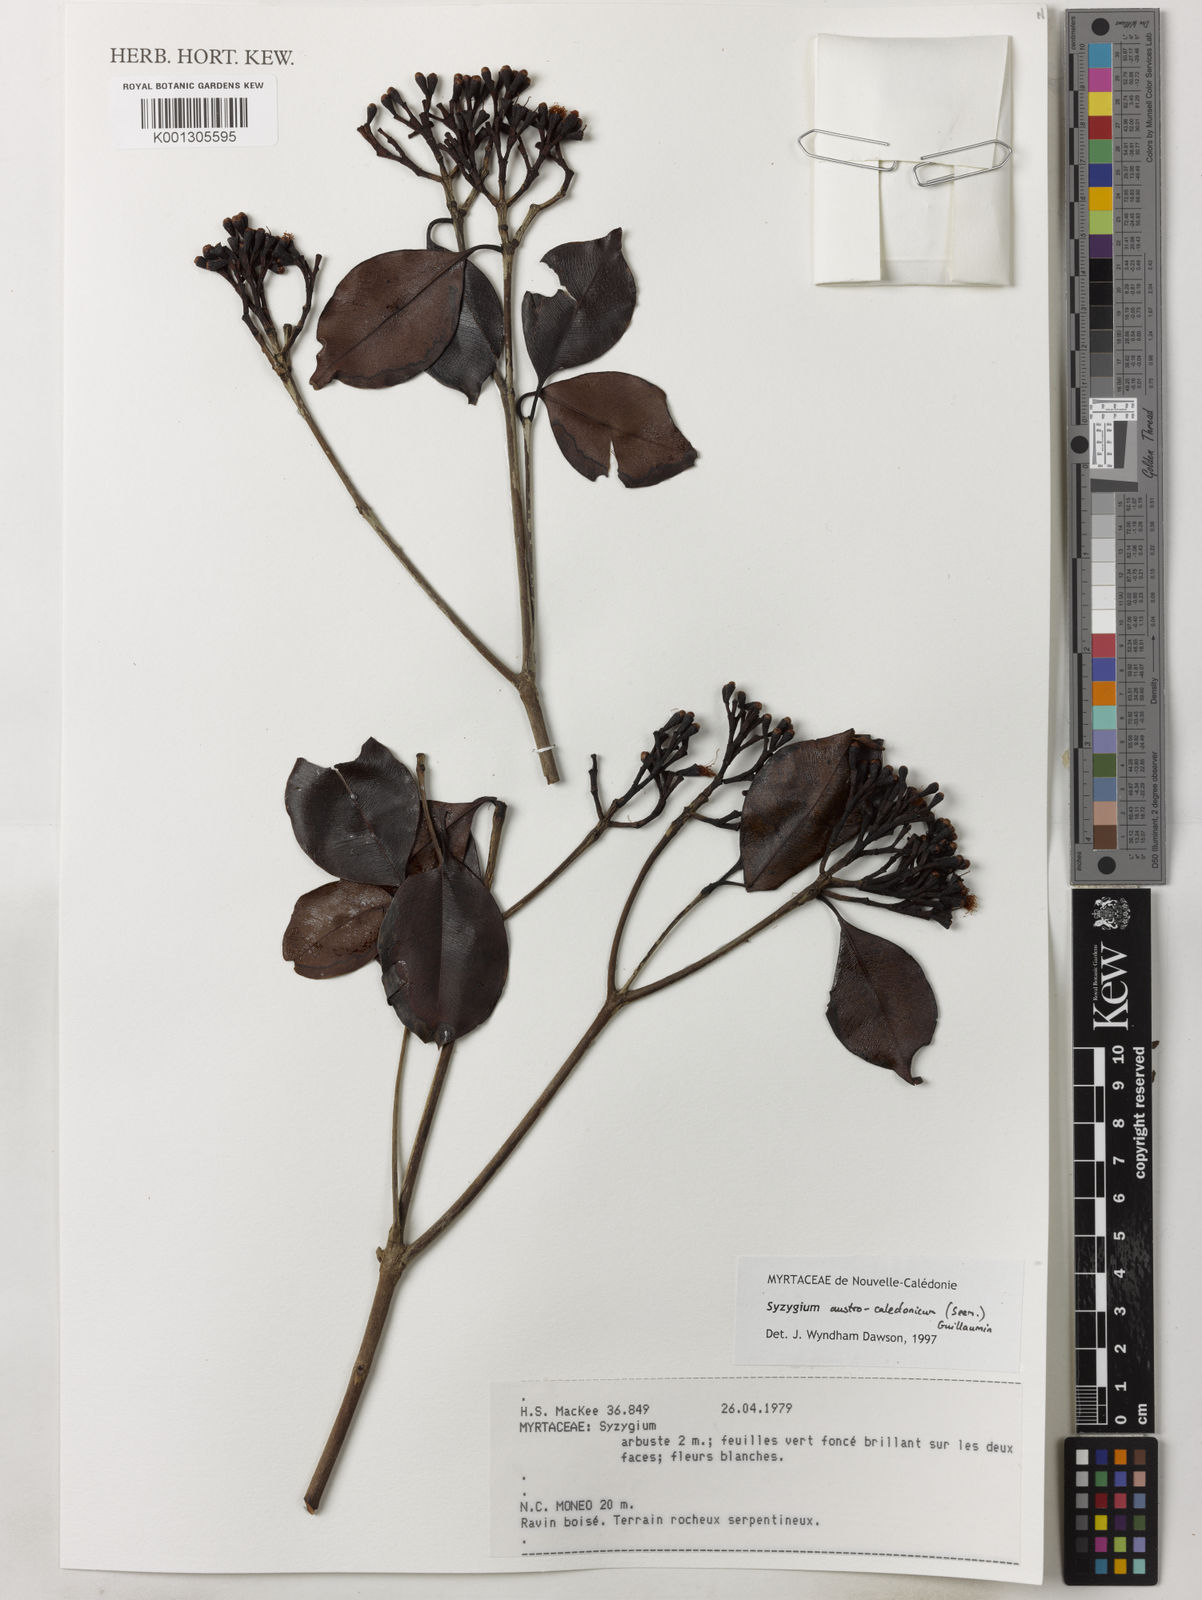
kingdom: Plantae
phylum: Tracheophyta
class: Magnoliopsida
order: Myrtales
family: Myrtaceae
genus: Syzygium
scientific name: Syzygium austrocaledonicum
